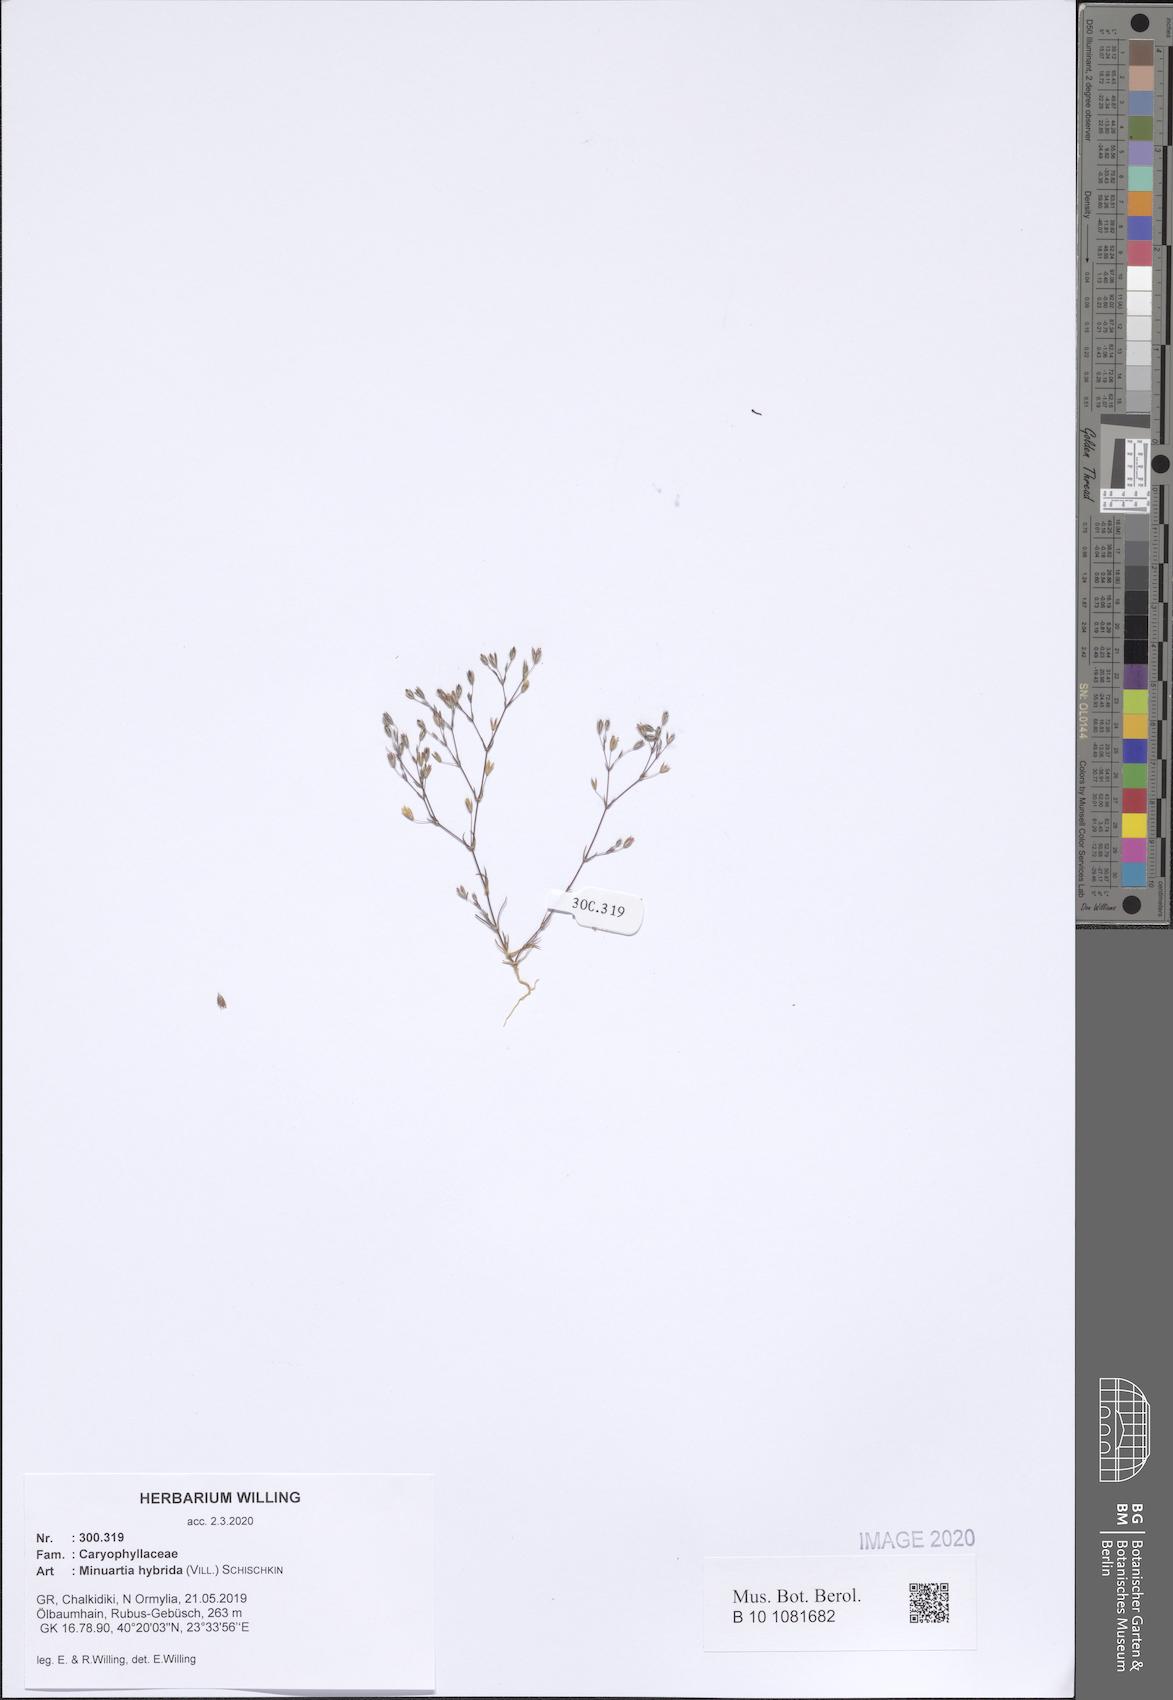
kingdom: Plantae
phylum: Tracheophyta
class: Magnoliopsida
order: Caryophyllales
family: Caryophyllaceae
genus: Sabulina
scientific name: Sabulina tenuifolia
